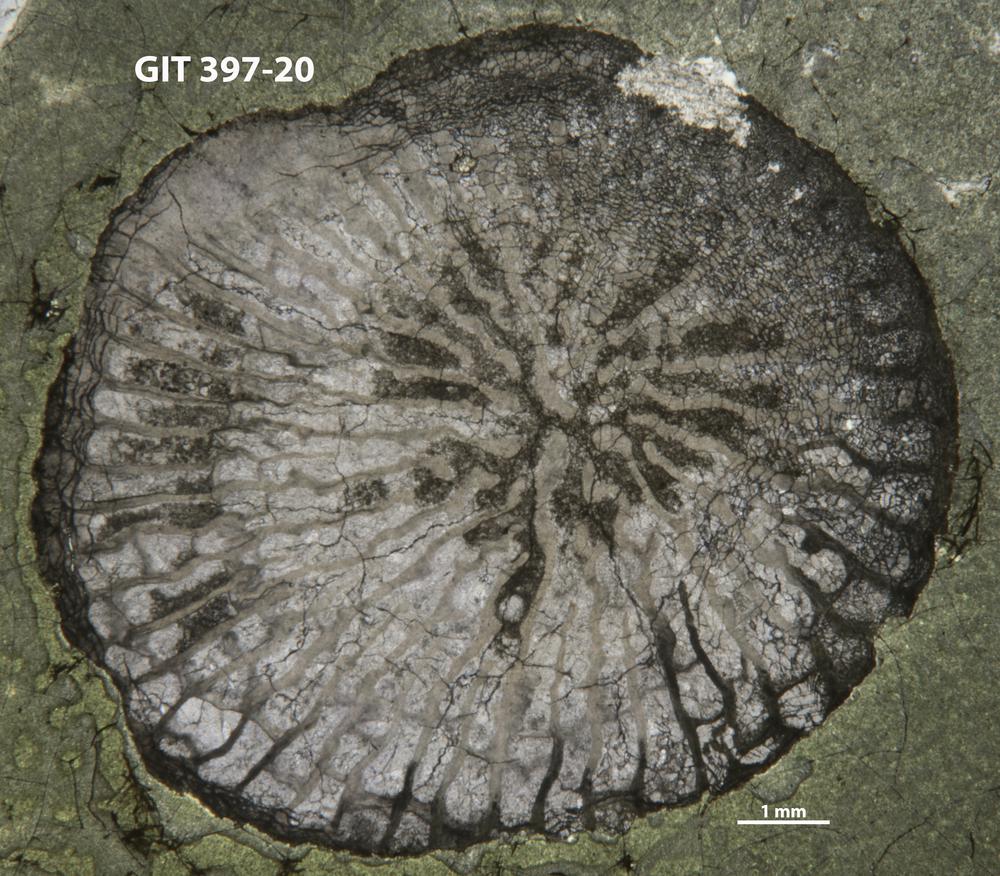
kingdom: Animalia
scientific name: Animalia
